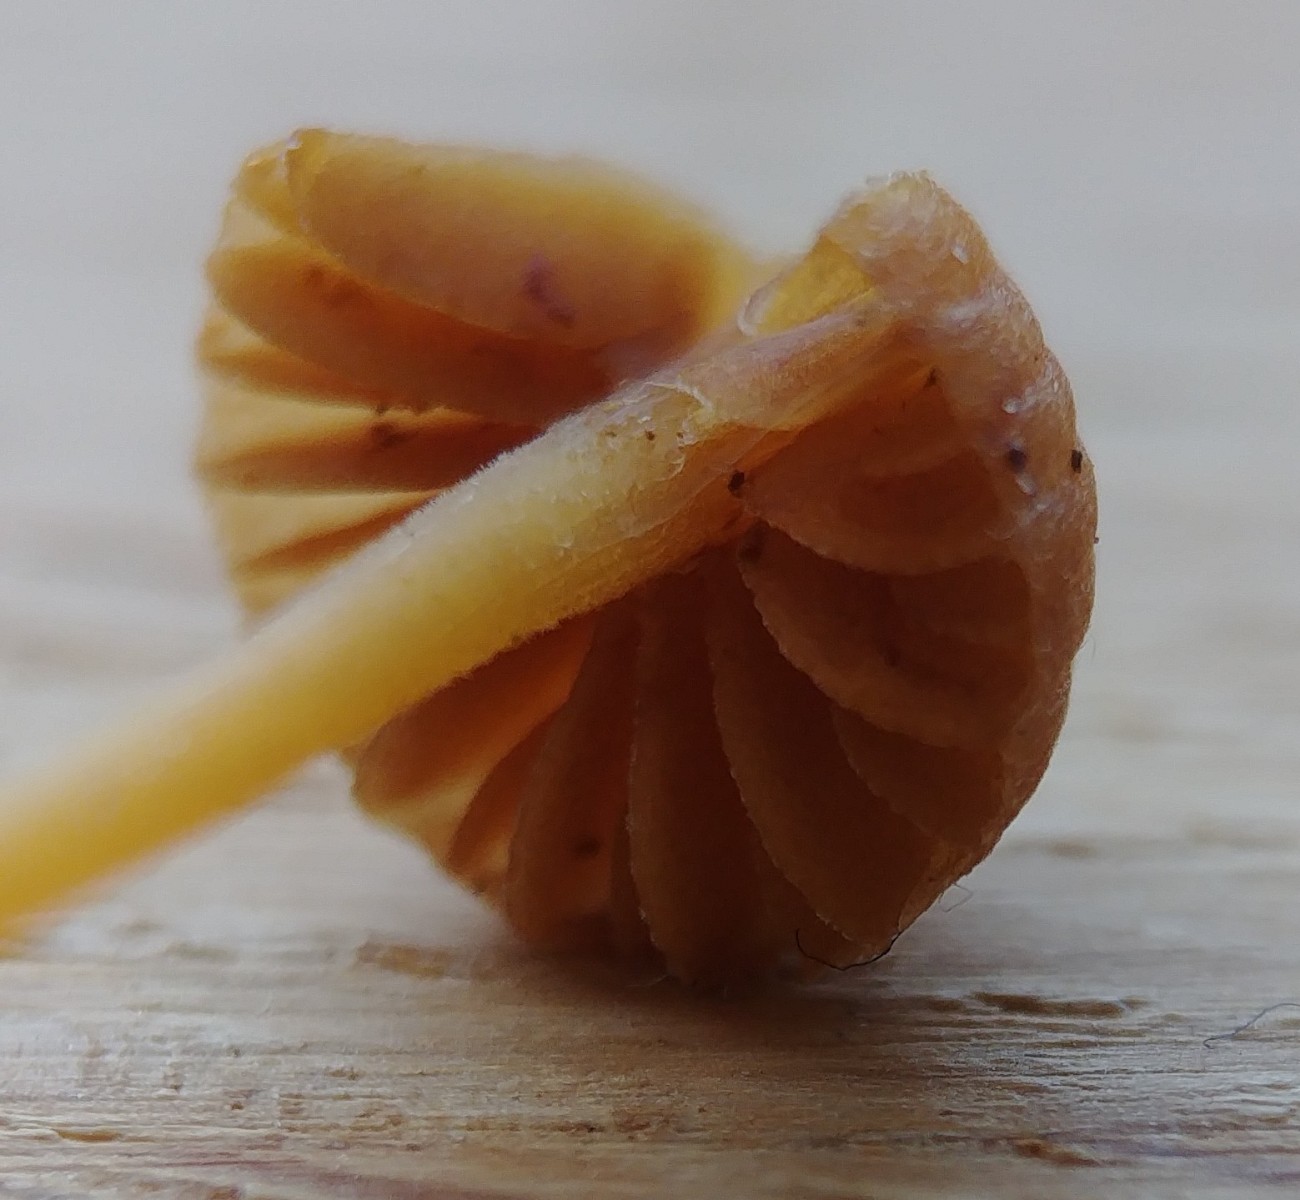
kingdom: Fungi
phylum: Basidiomycota
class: Agaricomycetes
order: Agaricales
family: Hymenogastraceae
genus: Galerina
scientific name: Galerina
